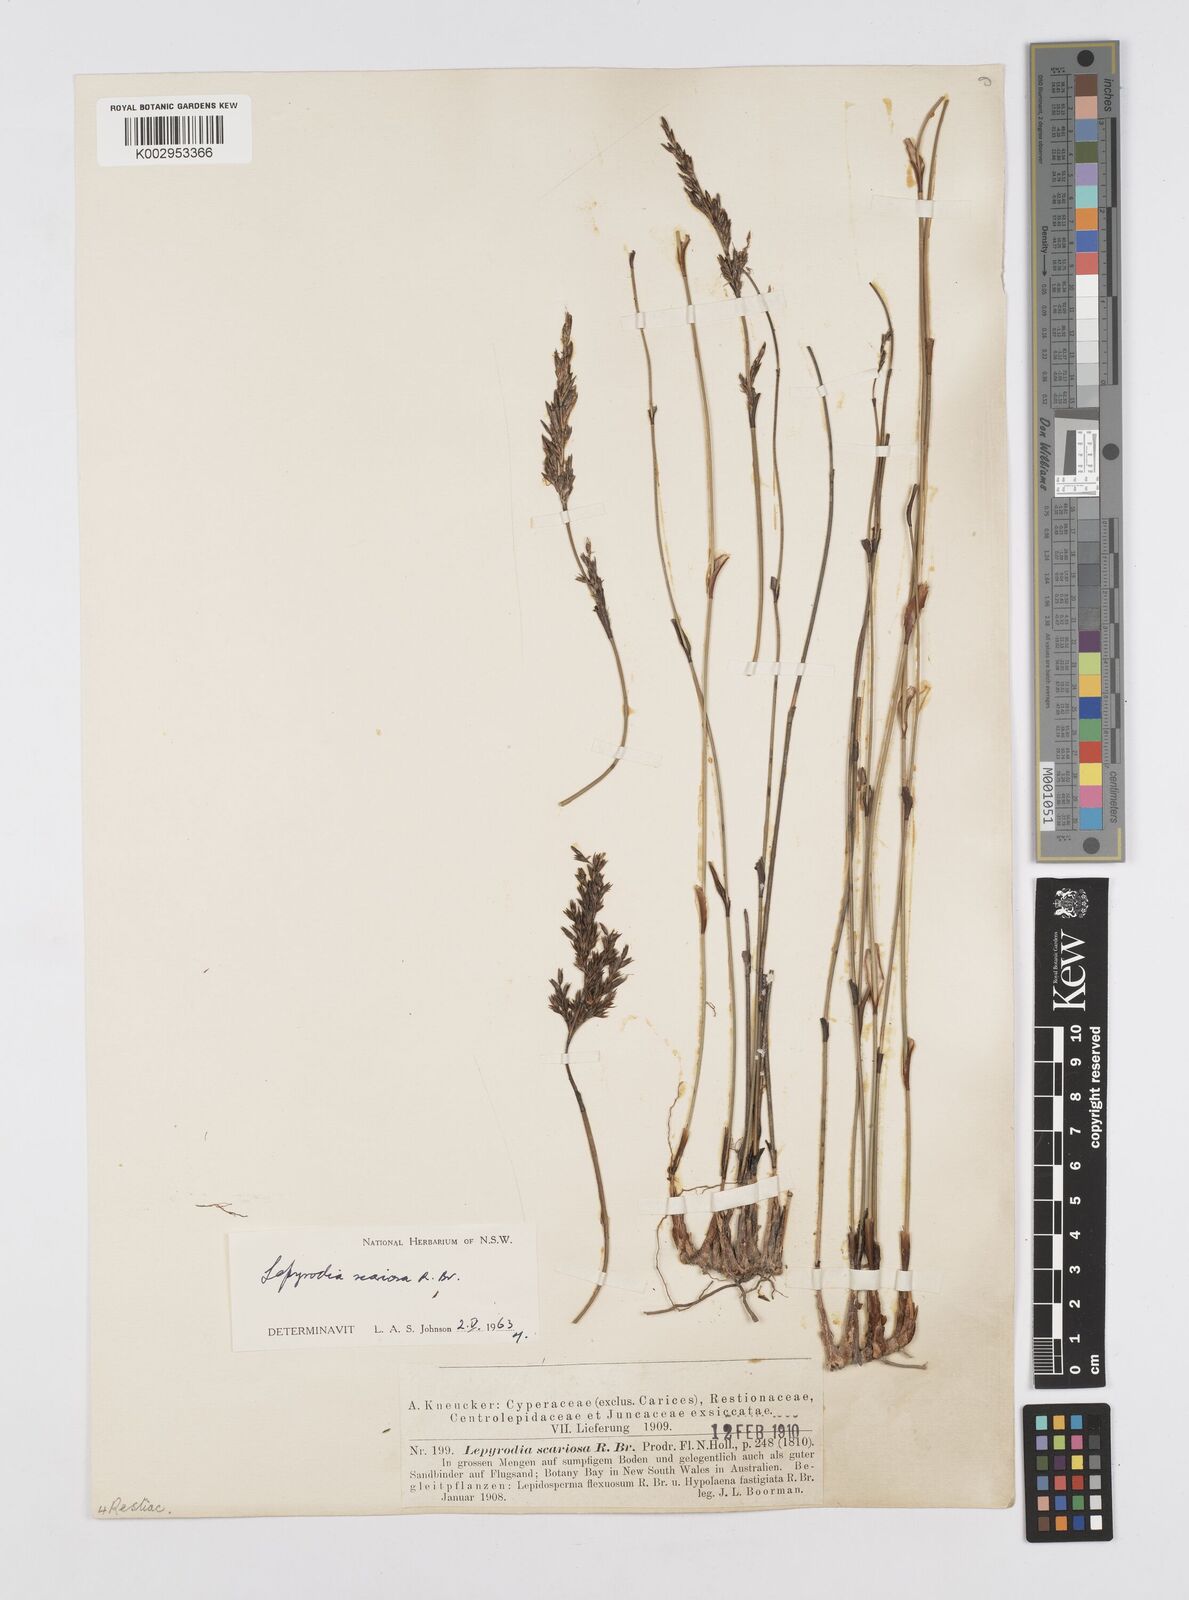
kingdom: Plantae
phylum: Tracheophyta
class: Liliopsida
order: Poales
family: Restionaceae
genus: Lepyrodia
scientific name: Lepyrodia scariosa
